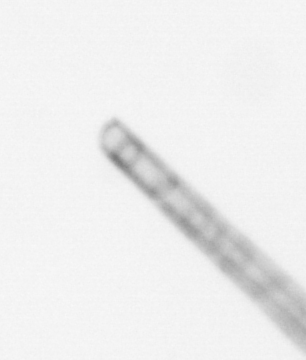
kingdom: Chromista
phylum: Ochrophyta
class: Bacillariophyceae
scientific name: Bacillariophyceae
